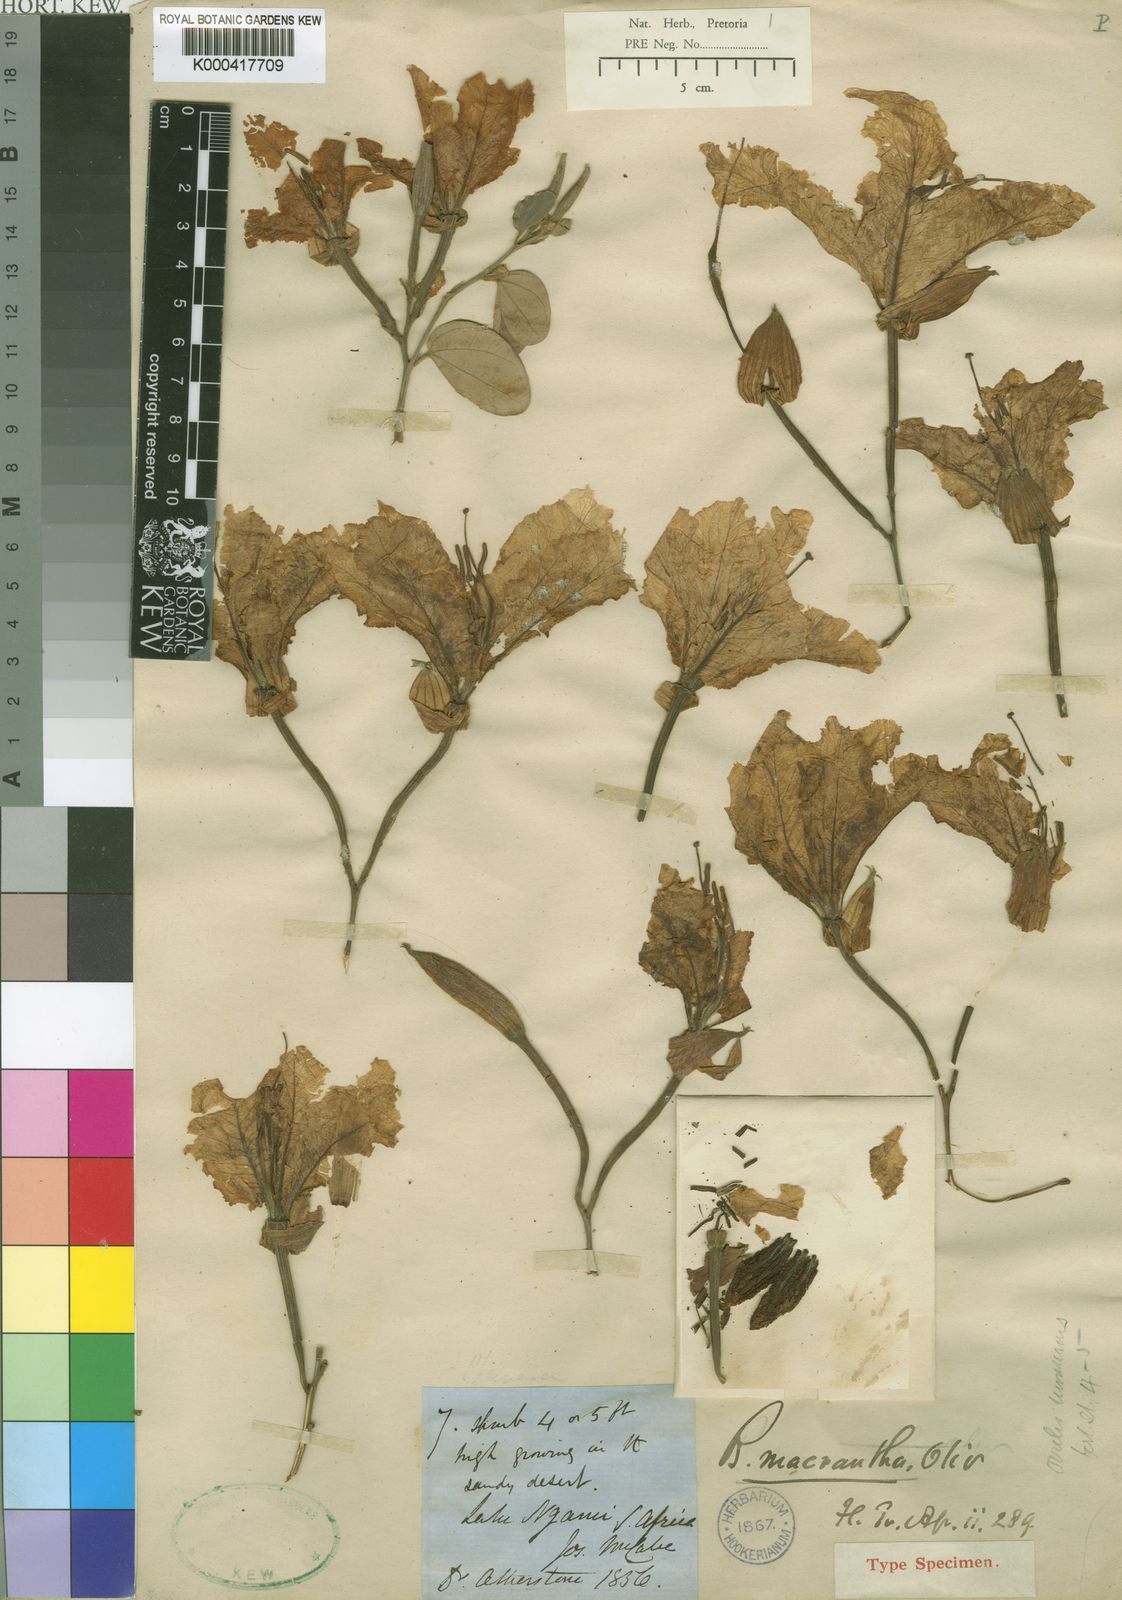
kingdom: Plantae
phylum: Tracheophyta
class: Magnoliopsida
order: Fabales
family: Fabaceae
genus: Bauhinia
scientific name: Bauhinia petersiana
